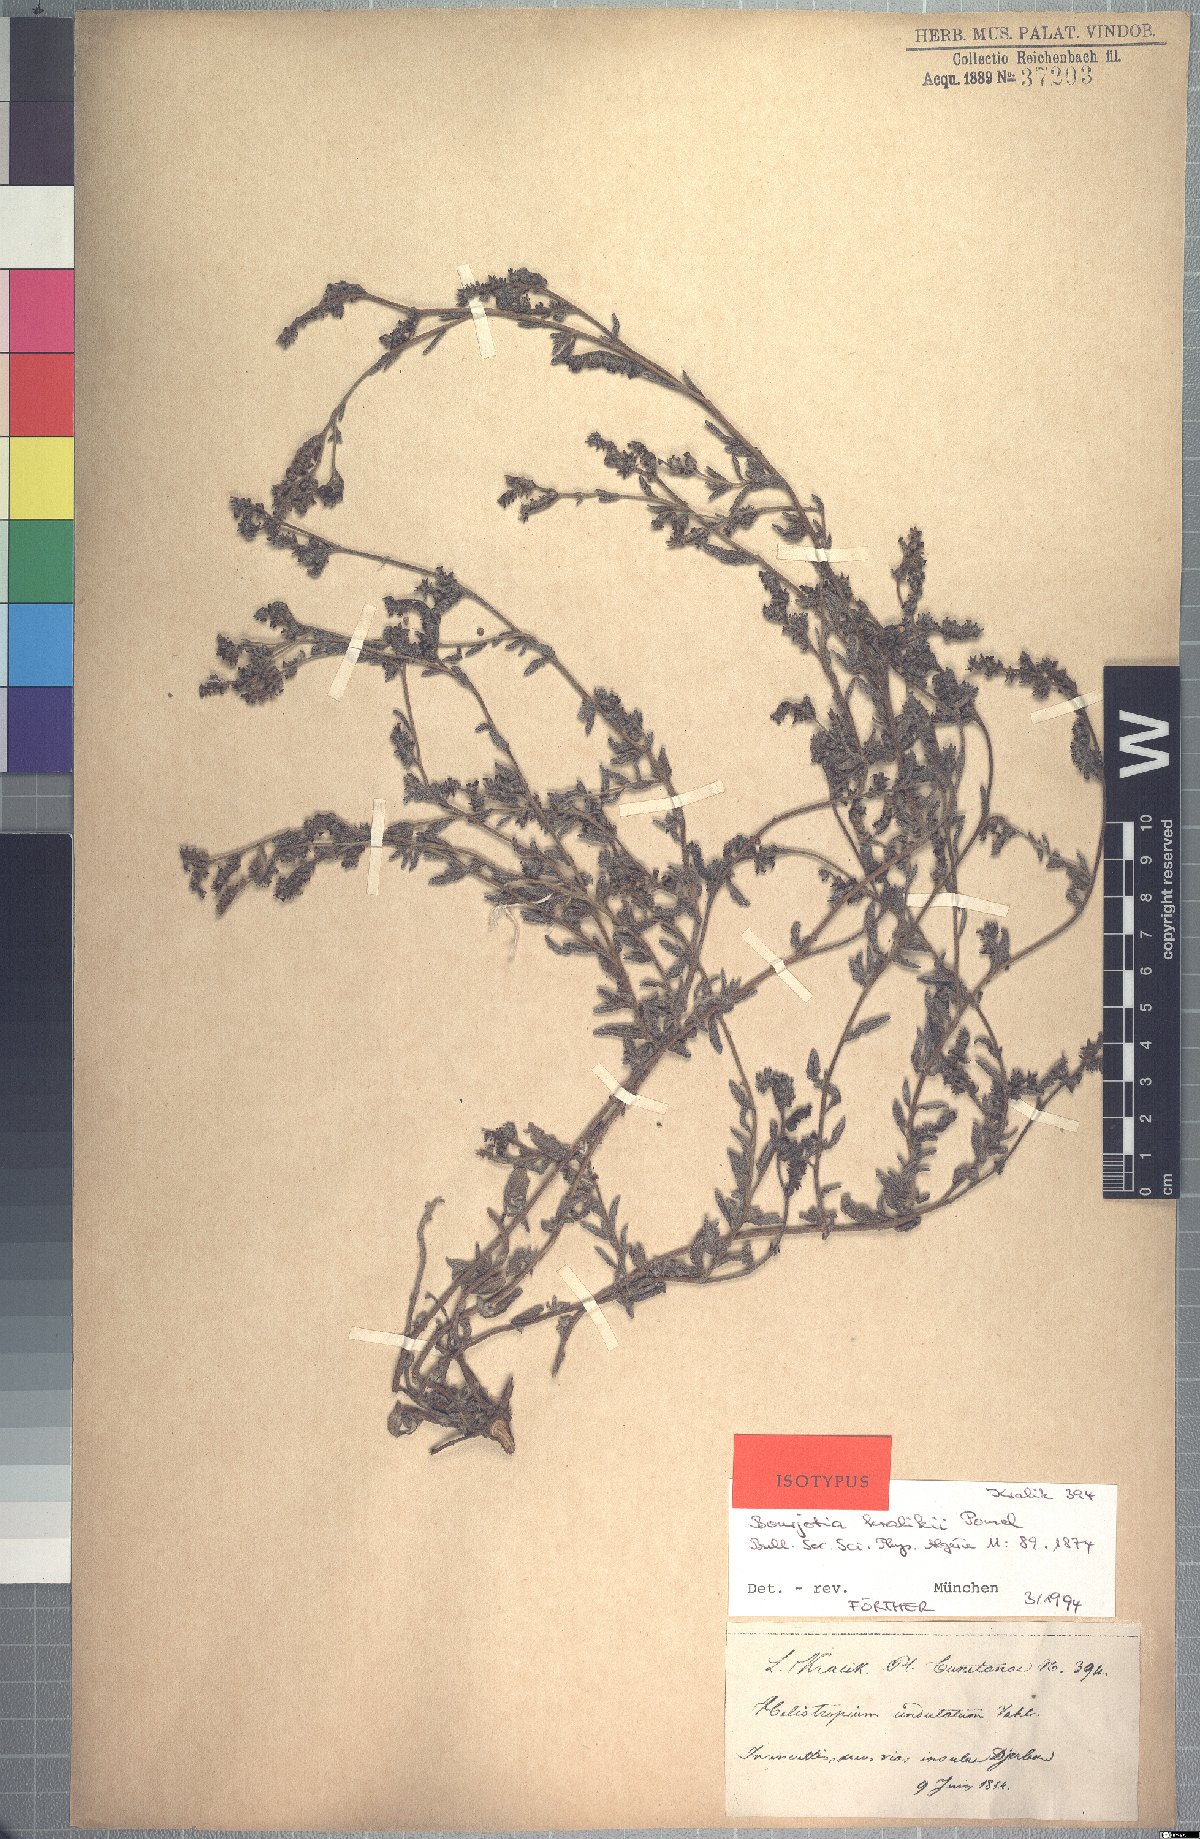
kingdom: Plantae
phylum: Tracheophyta
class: Magnoliopsida
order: Boraginales
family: Heliotropiaceae
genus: Heliotropium
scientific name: Heliotropium crispum
